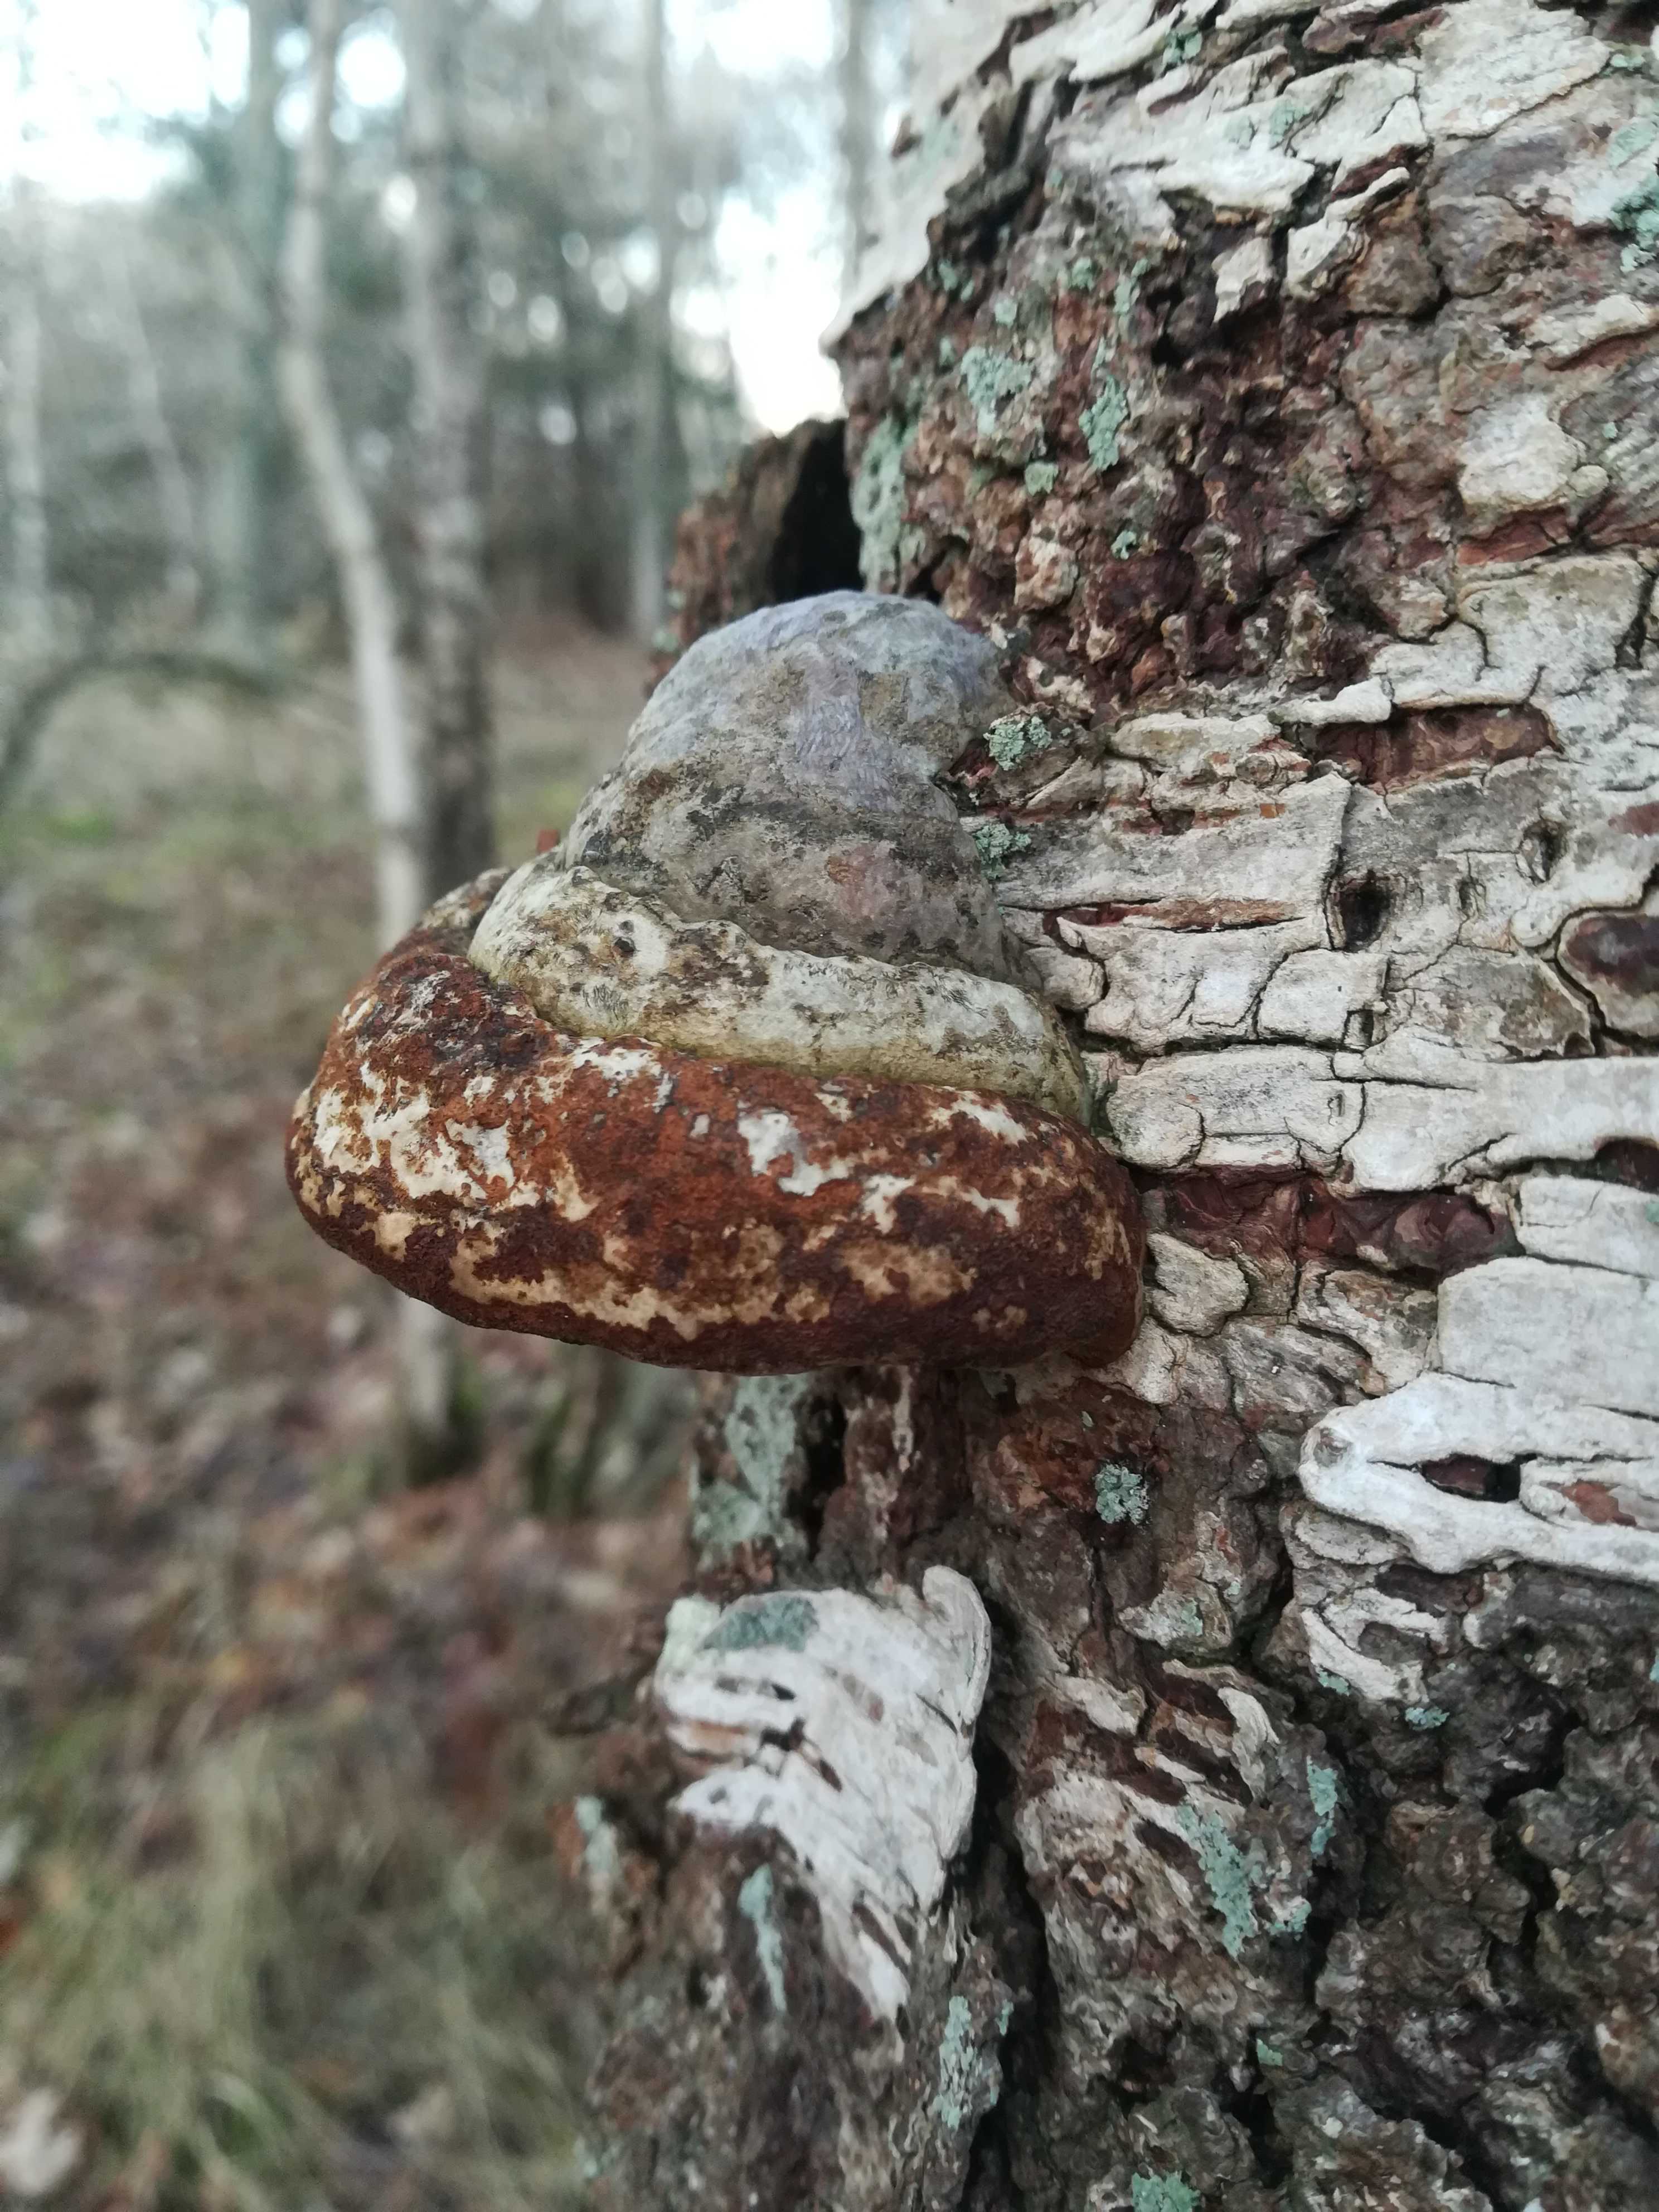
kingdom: Fungi
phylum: Basidiomycota
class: Agaricomycetes
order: Polyporales
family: Polyporaceae
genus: Fomes
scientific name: Fomes fomentarius
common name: tøndersvamp
